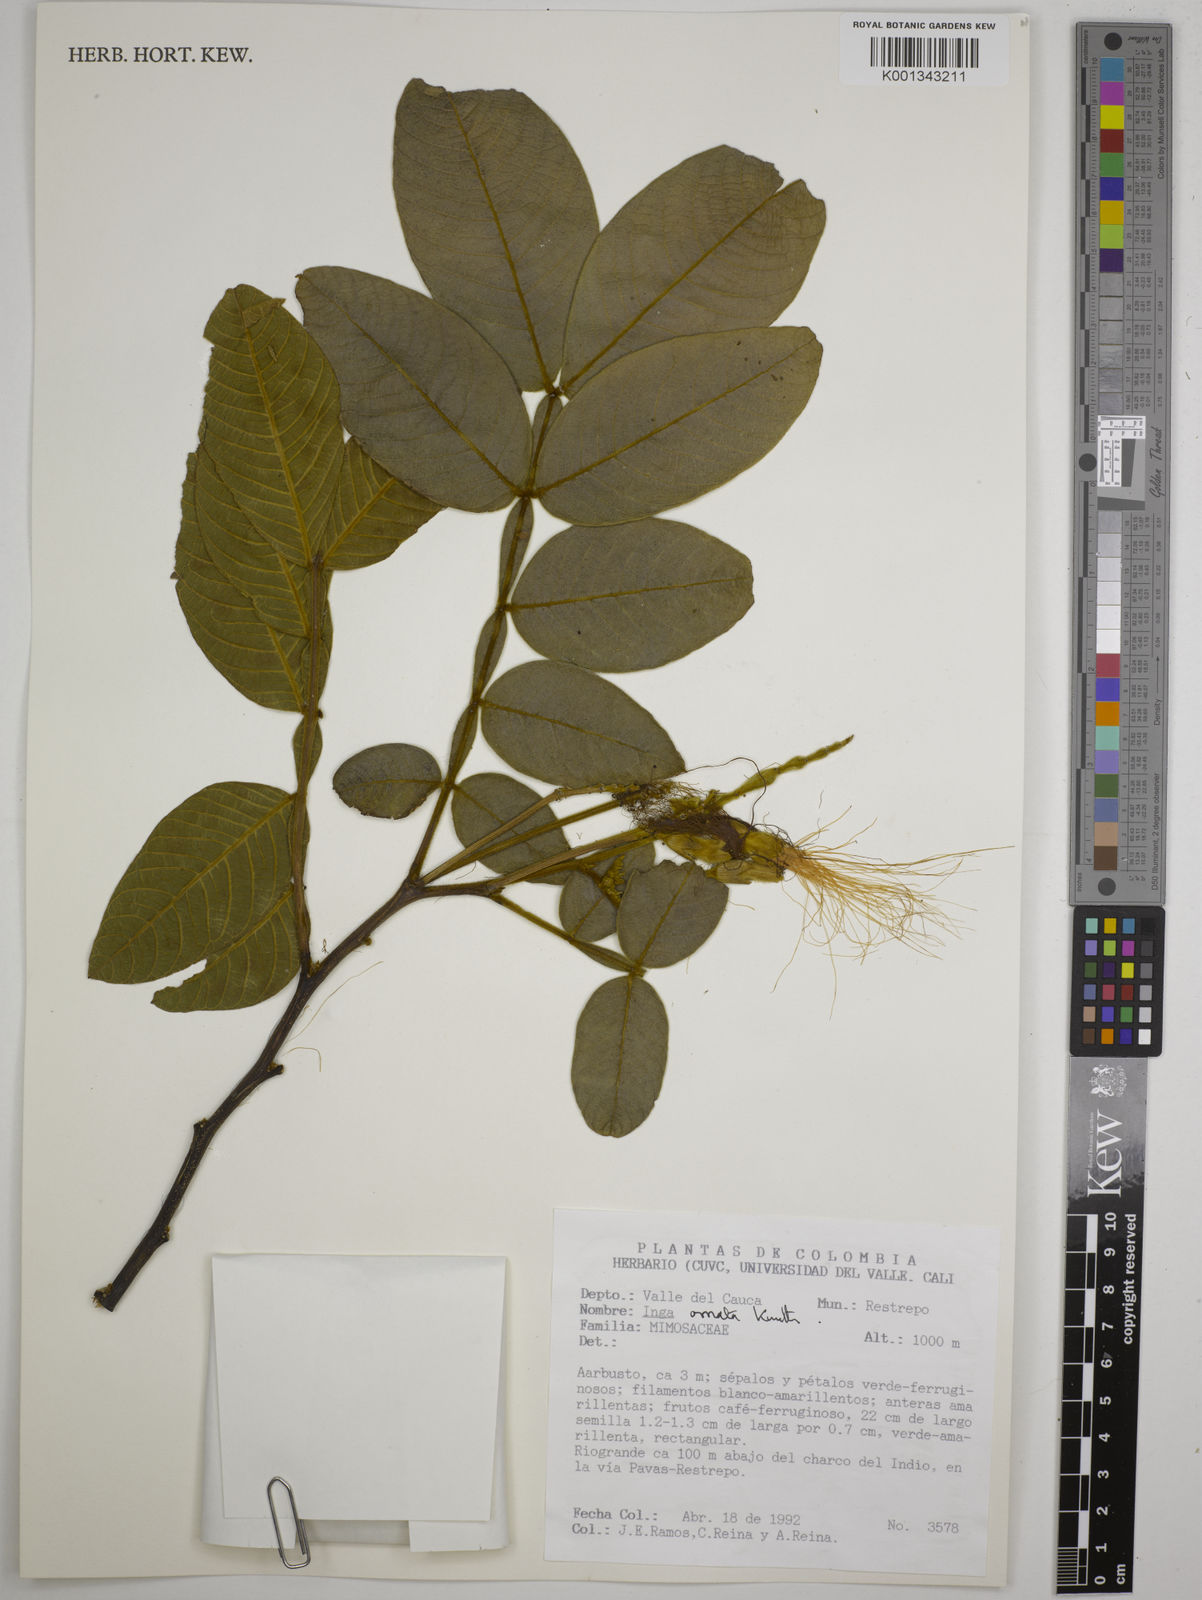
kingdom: Plantae
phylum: Tracheophyta
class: Magnoliopsida
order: Fabales
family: Fabaceae
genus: Inga
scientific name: Inga ornata
